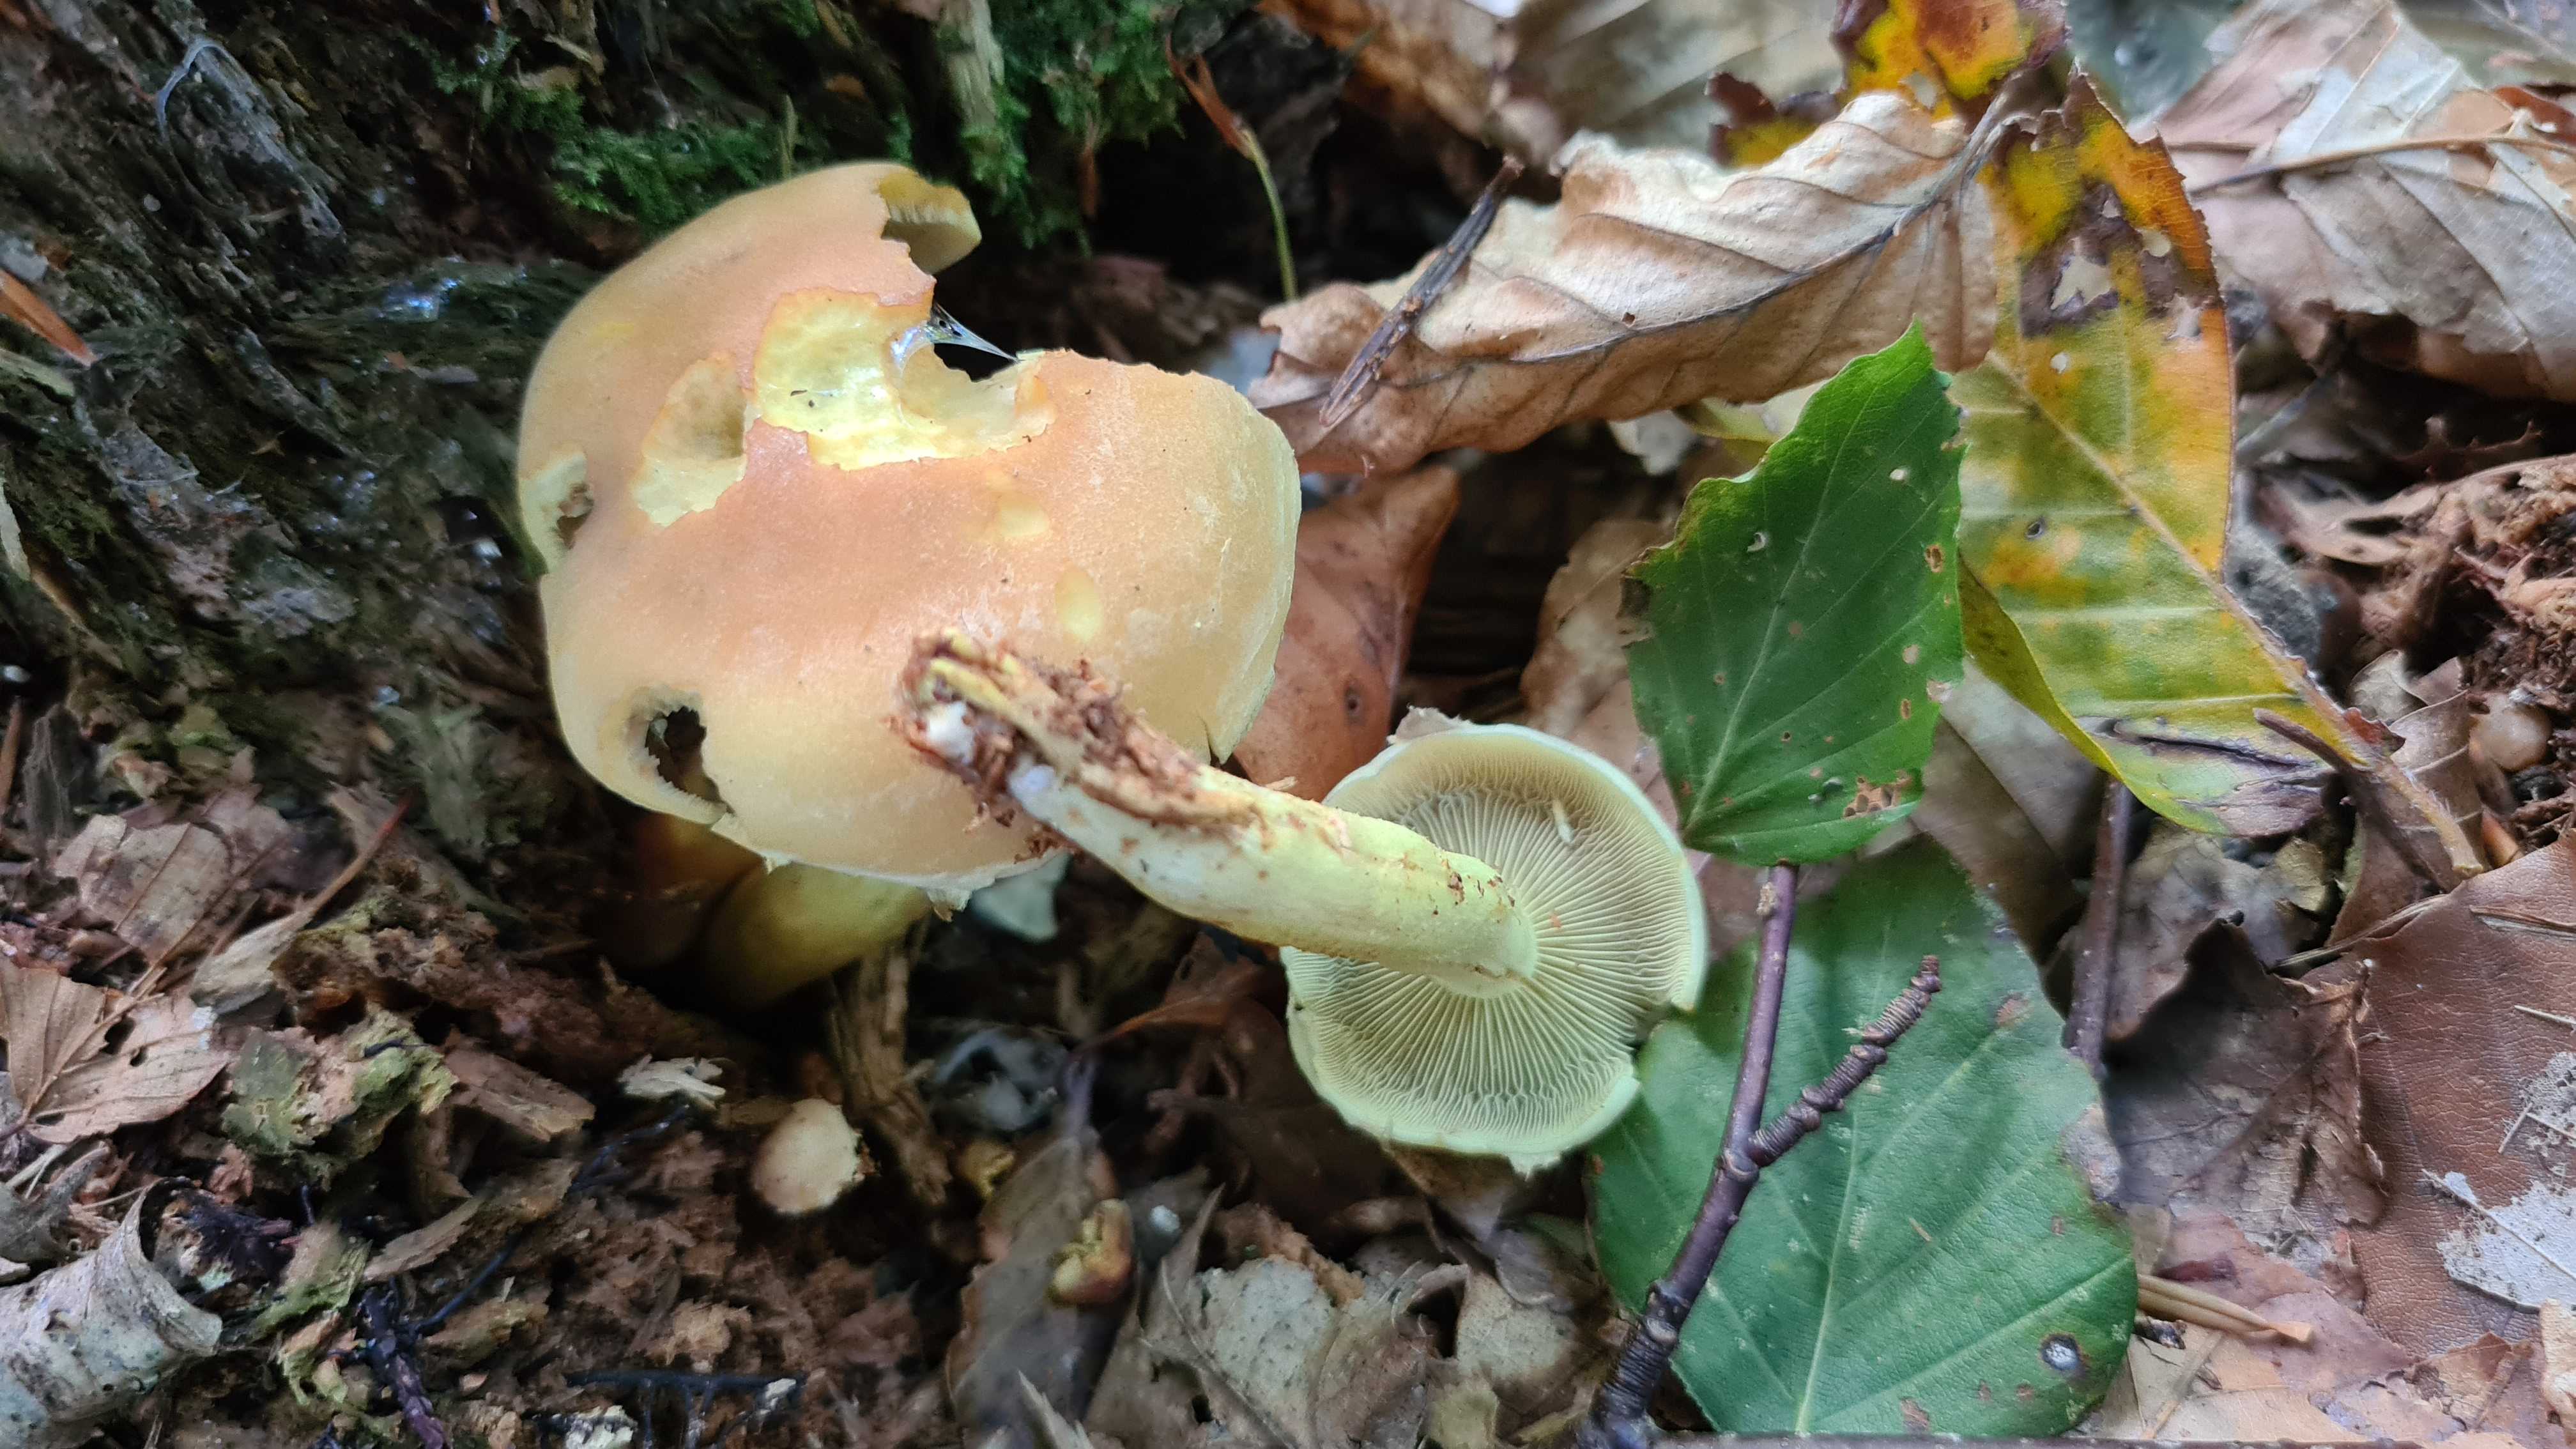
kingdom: Fungi
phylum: Basidiomycota
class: Agaricomycetes
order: Agaricales
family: Strophariaceae
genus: Hypholoma
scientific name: Hypholoma fasciculare
